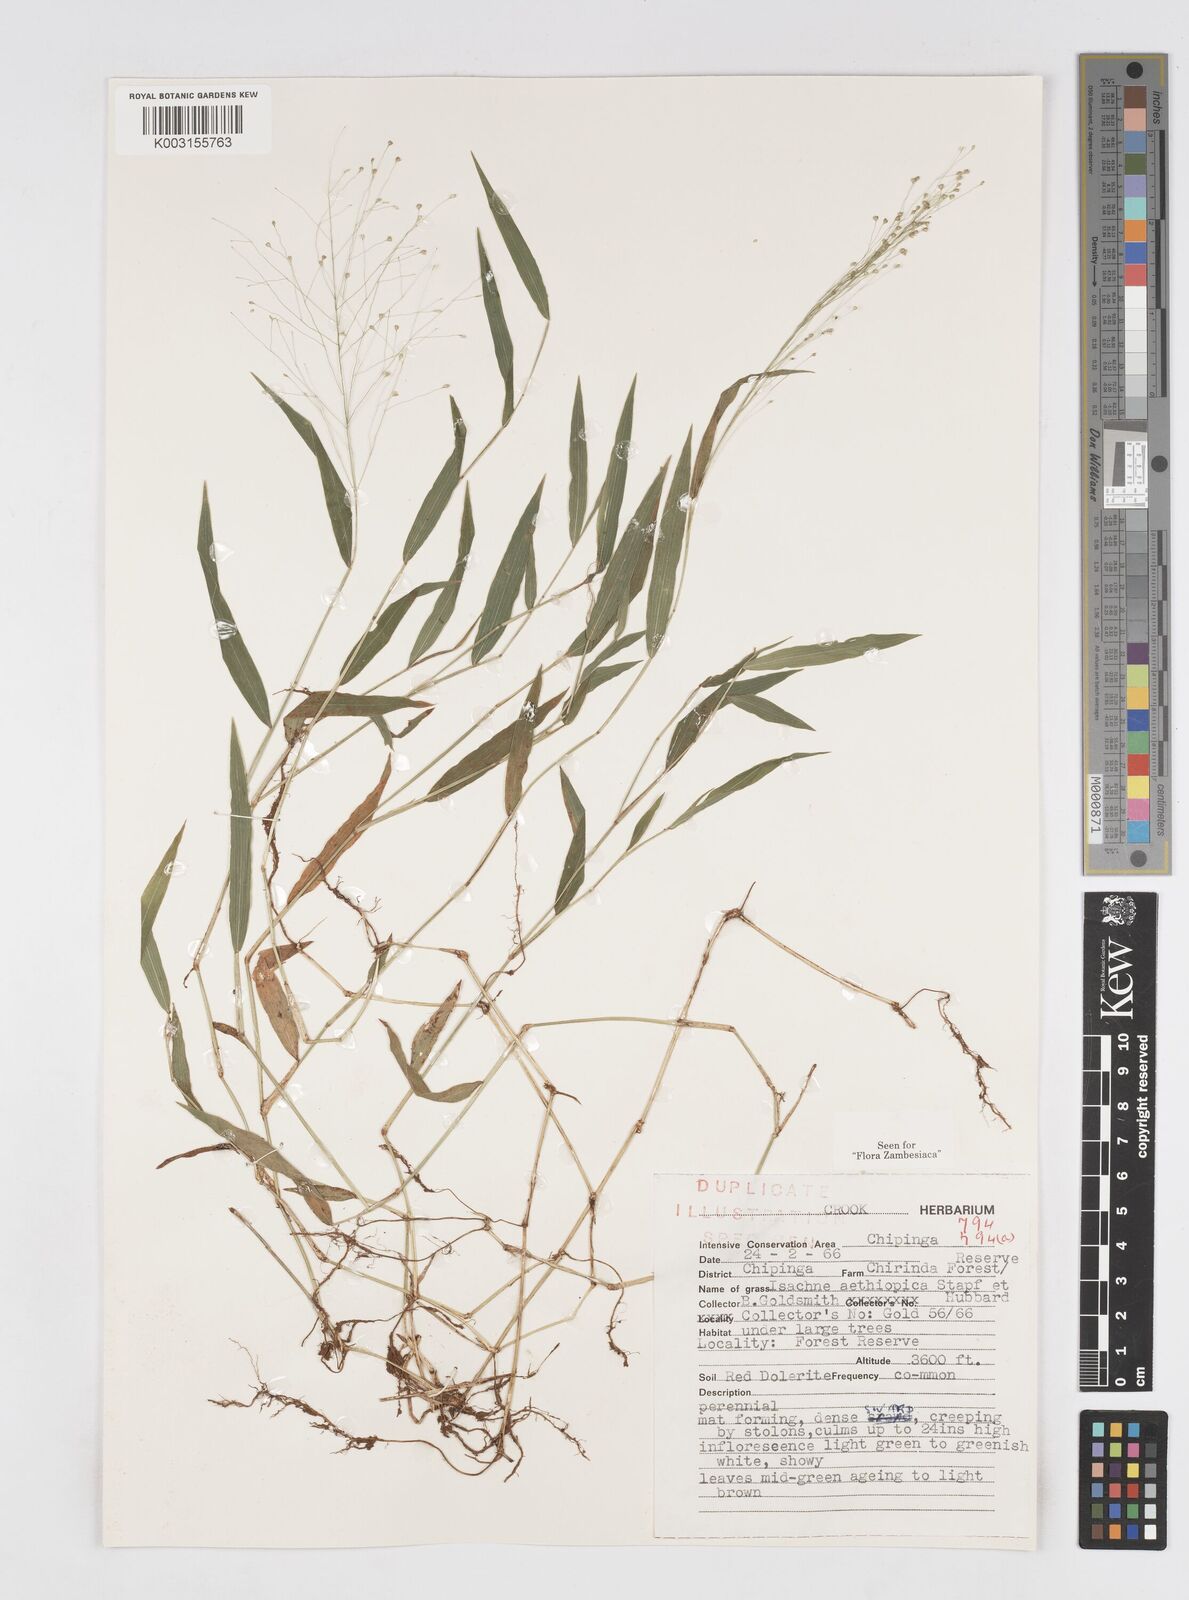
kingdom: Plantae
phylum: Tracheophyta
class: Liliopsida
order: Poales
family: Poaceae
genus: Isachne
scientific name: Isachne mauritiana
